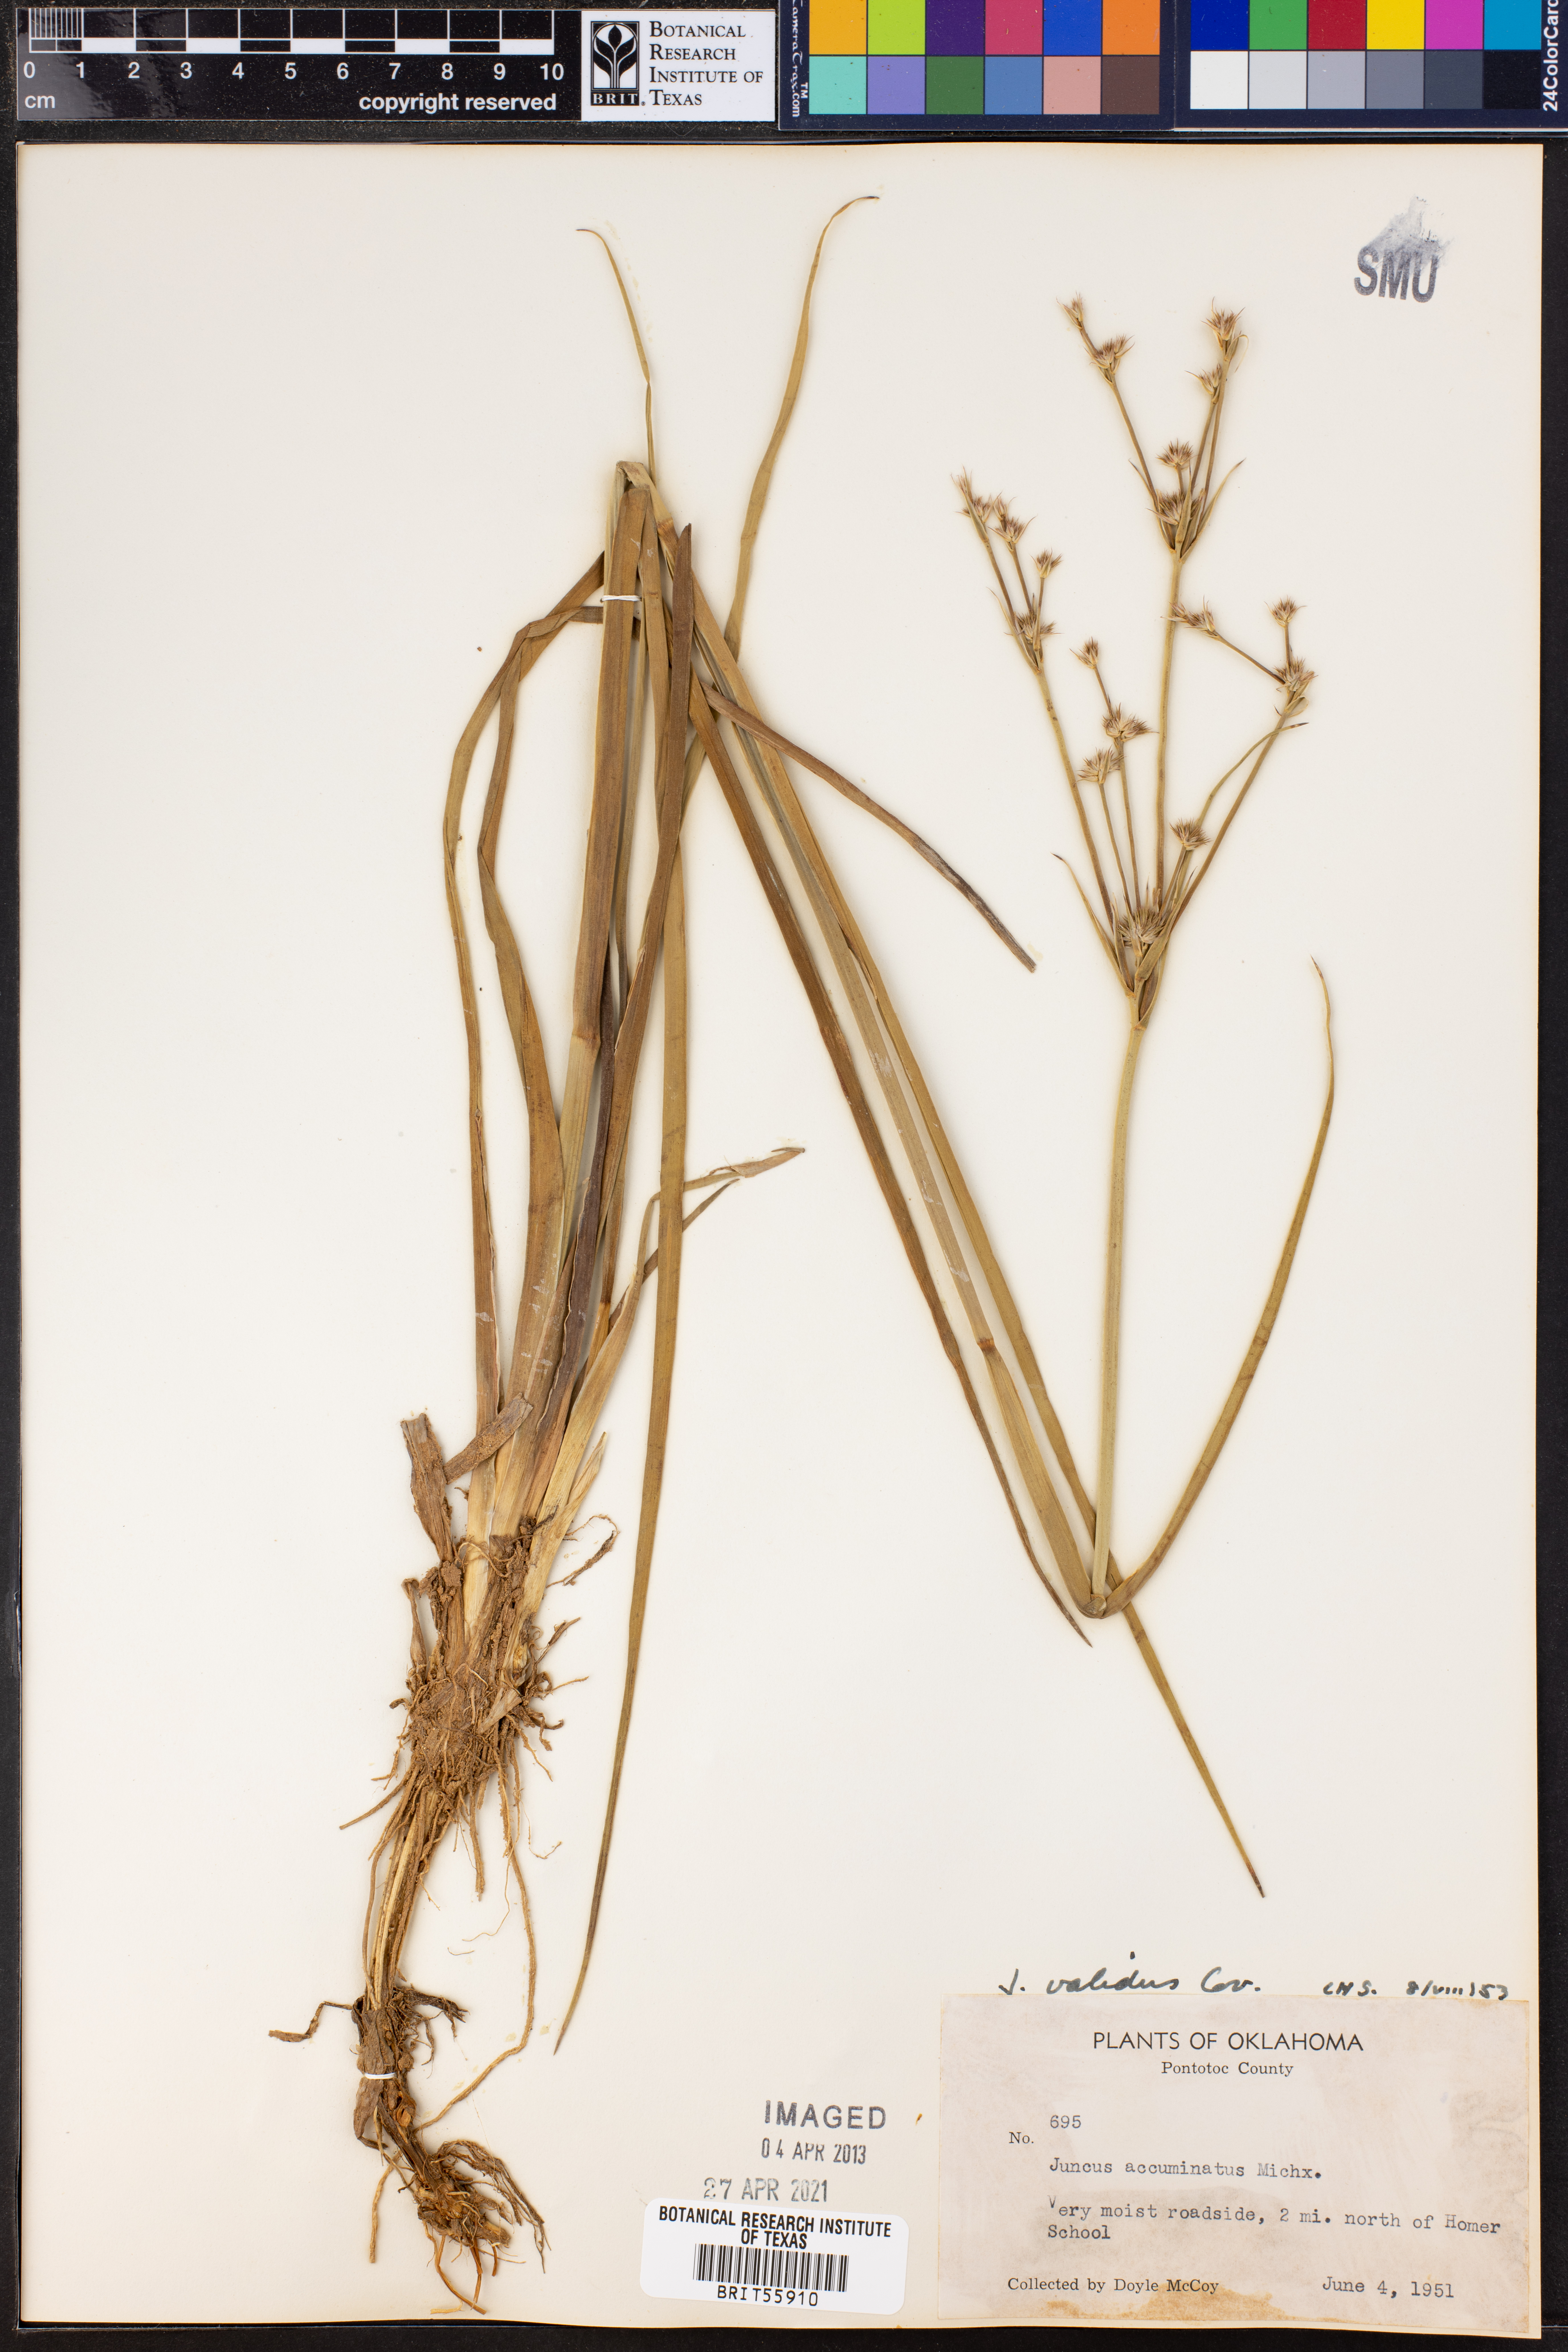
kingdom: Plantae
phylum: Tracheophyta
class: Liliopsida
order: Poales
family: Juncaceae
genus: Juncus
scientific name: Juncus validus
